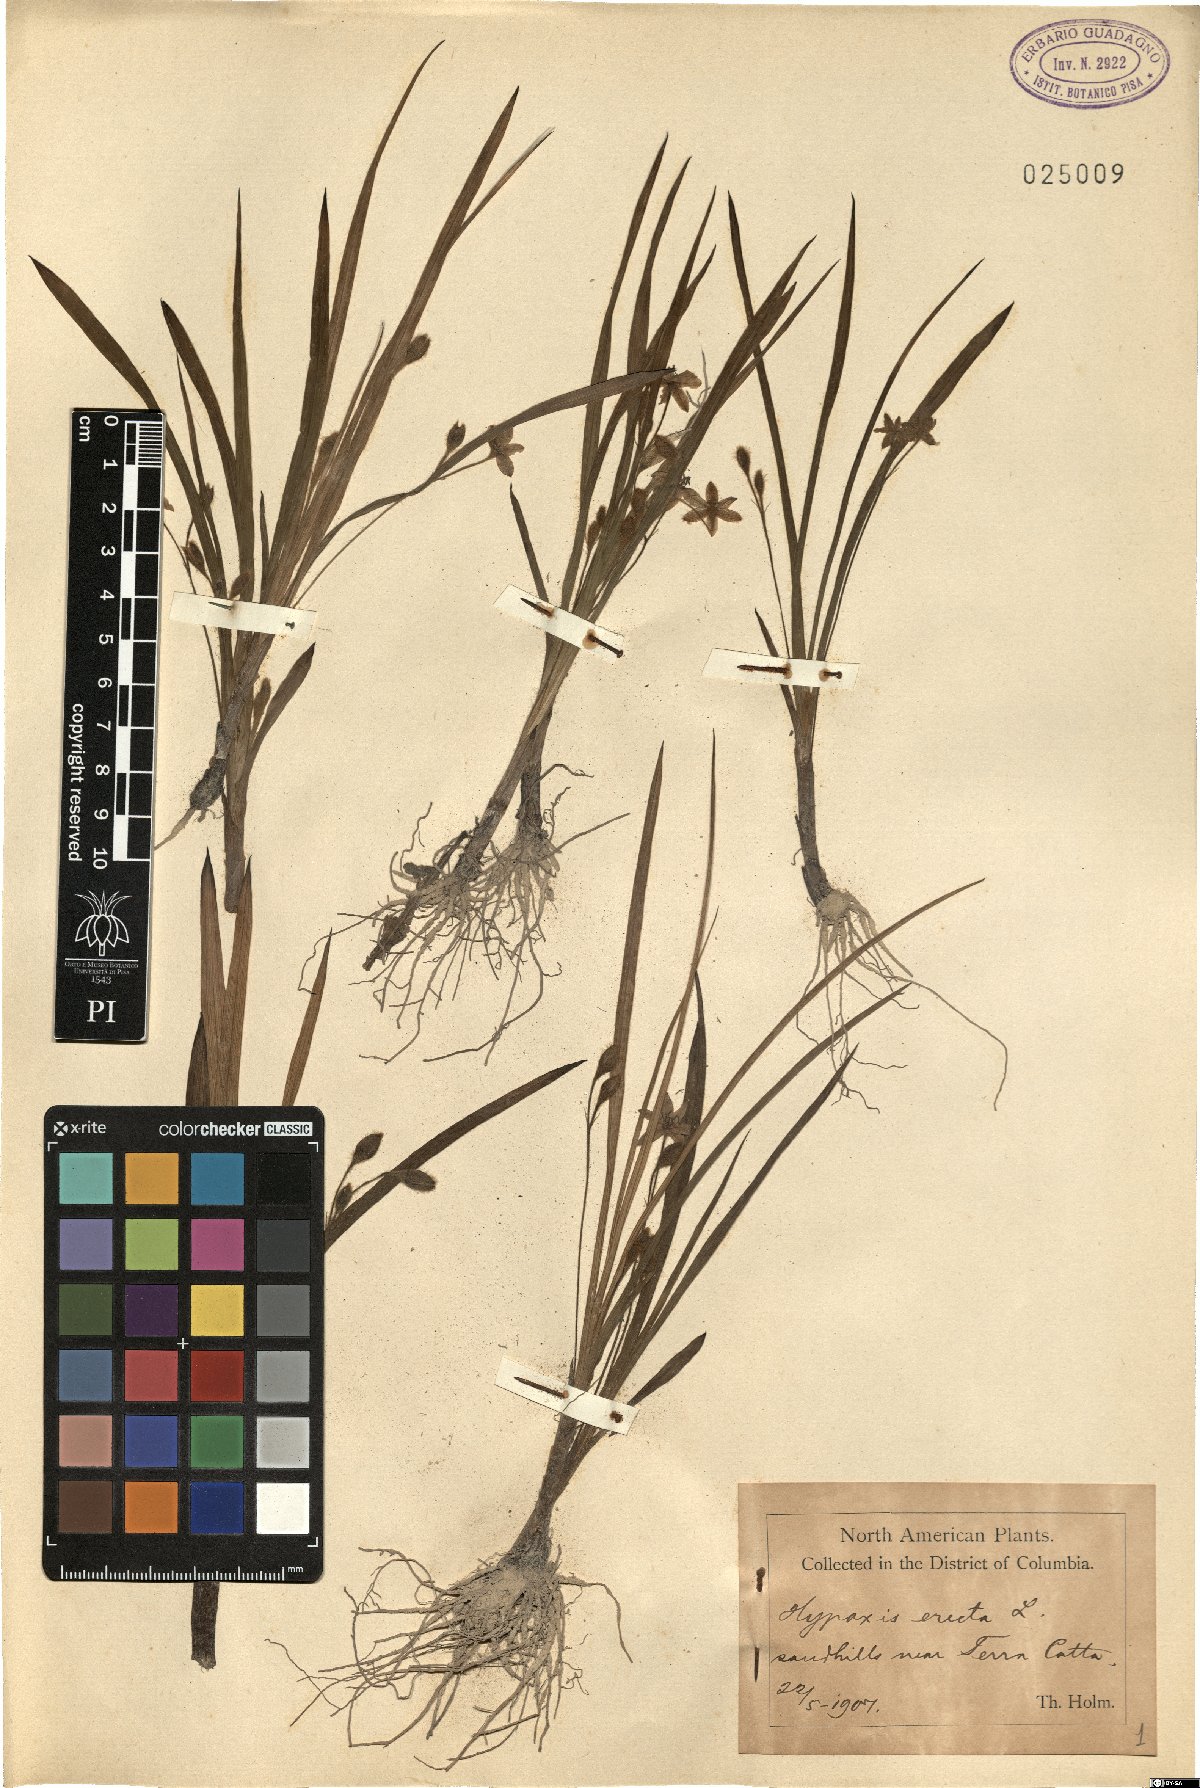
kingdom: Plantae
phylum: Tracheophyta
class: Liliopsida
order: Asparagales
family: Hypoxidaceae
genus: Hypoxis
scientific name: Hypoxis hirsuta
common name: Common goldstar
